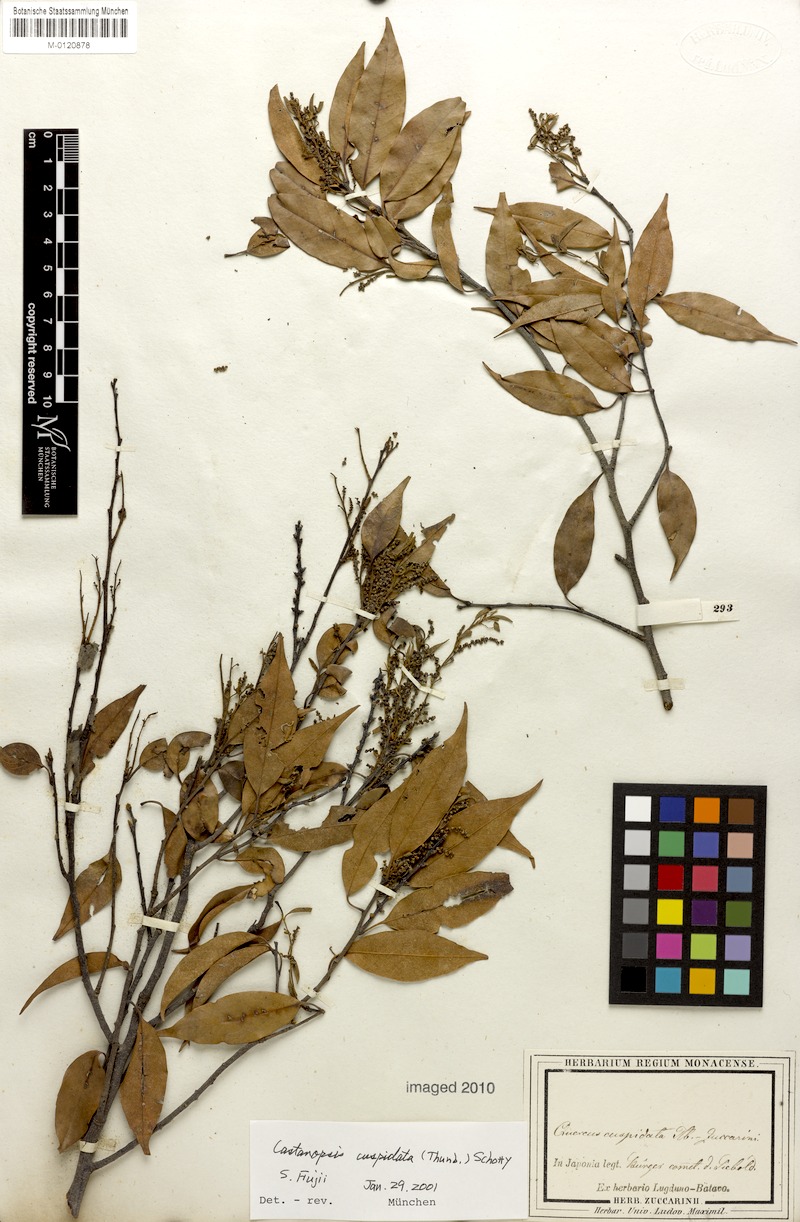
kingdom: Plantae
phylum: Tracheophyta
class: Magnoliopsida
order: Fagales
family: Fagaceae
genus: Castanopsis
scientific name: Castanopsis cuspidata
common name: Japanese chinquapin
